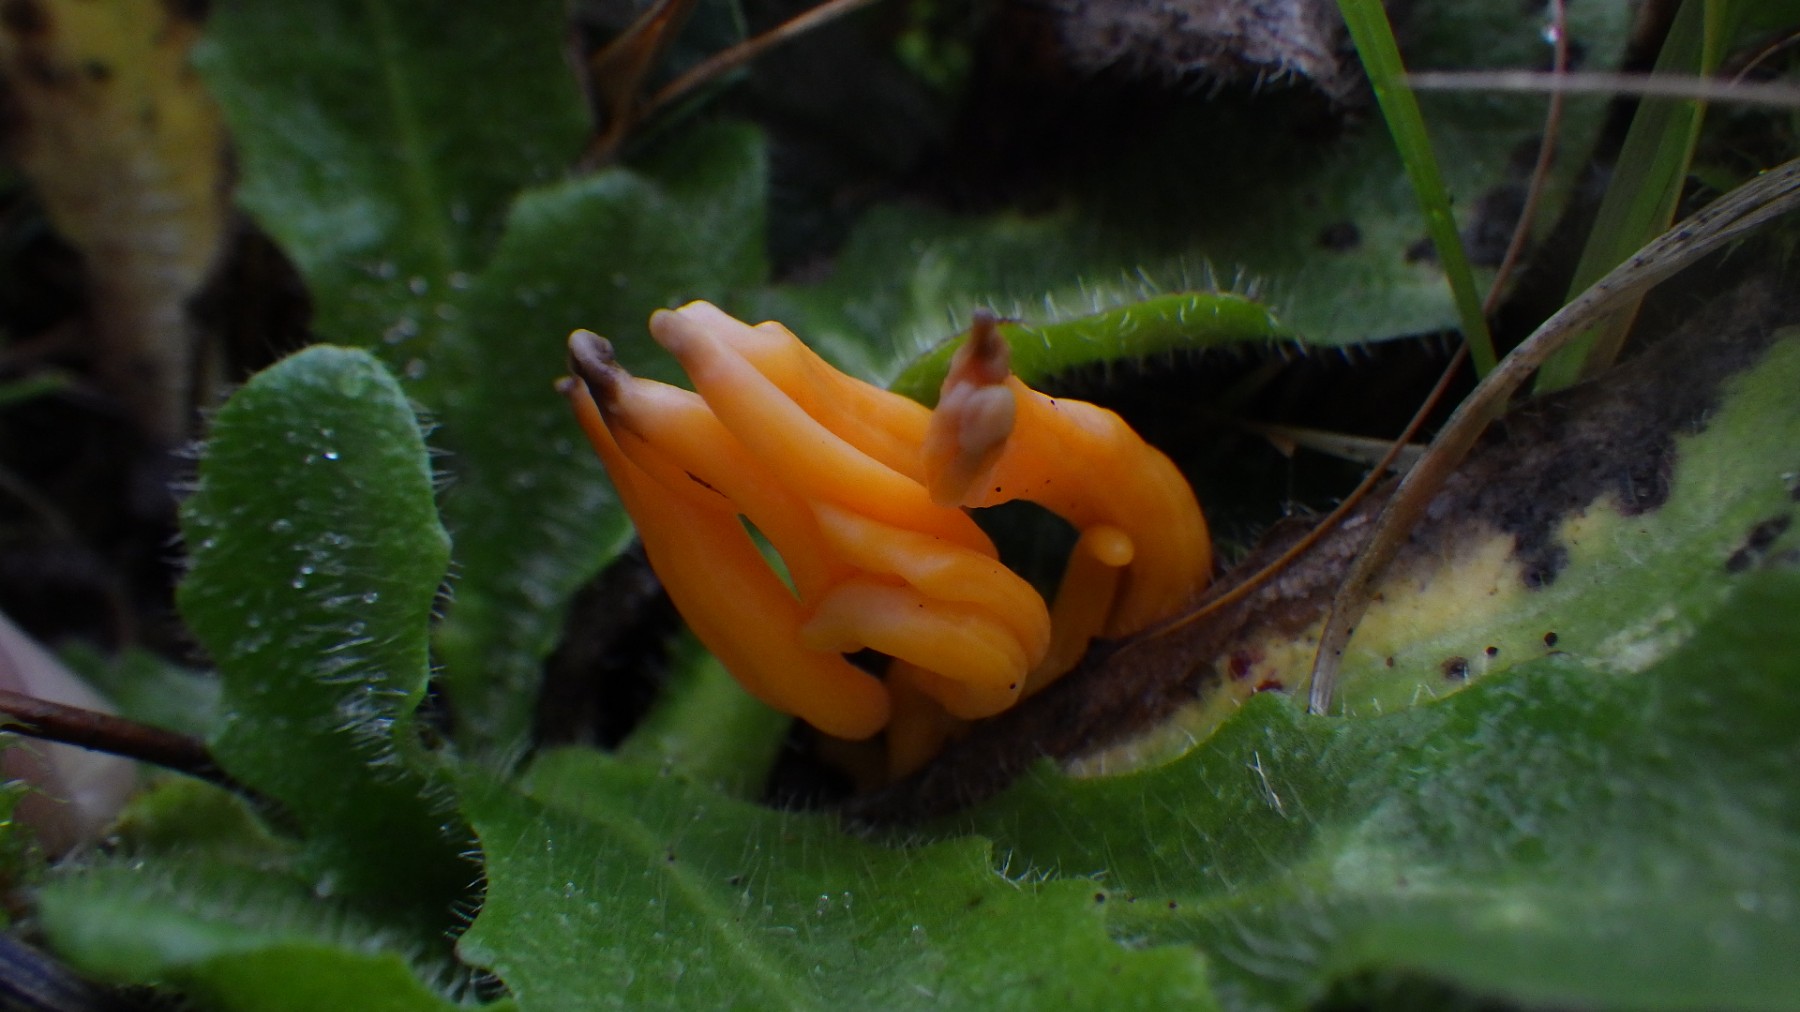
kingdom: Fungi
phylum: Basidiomycota
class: Agaricomycetes
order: Agaricales
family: Clavariaceae
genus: Clavulinopsis
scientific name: Clavulinopsis luteoalba
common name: abrikos-køllesvamp
